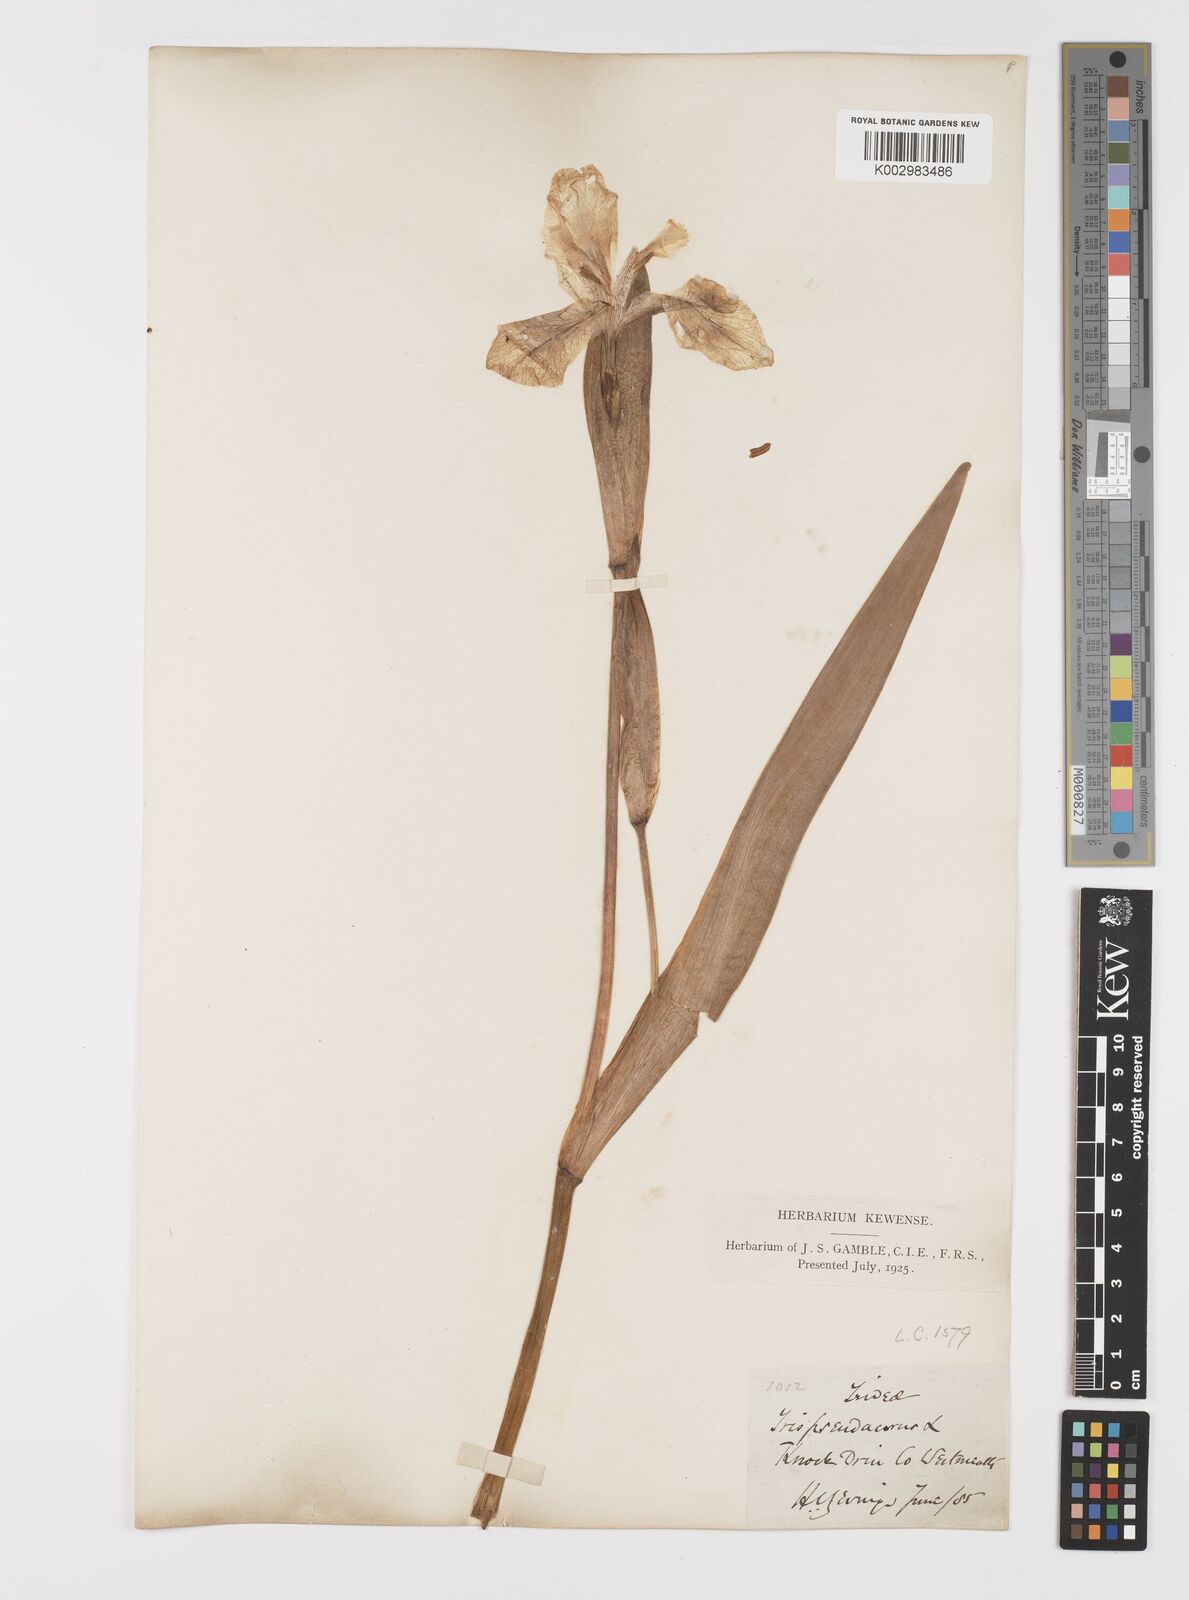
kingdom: Plantae
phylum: Tracheophyta
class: Liliopsida
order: Asparagales
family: Iridaceae
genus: Iris
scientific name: Iris pseudacorus
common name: Yellow flag
